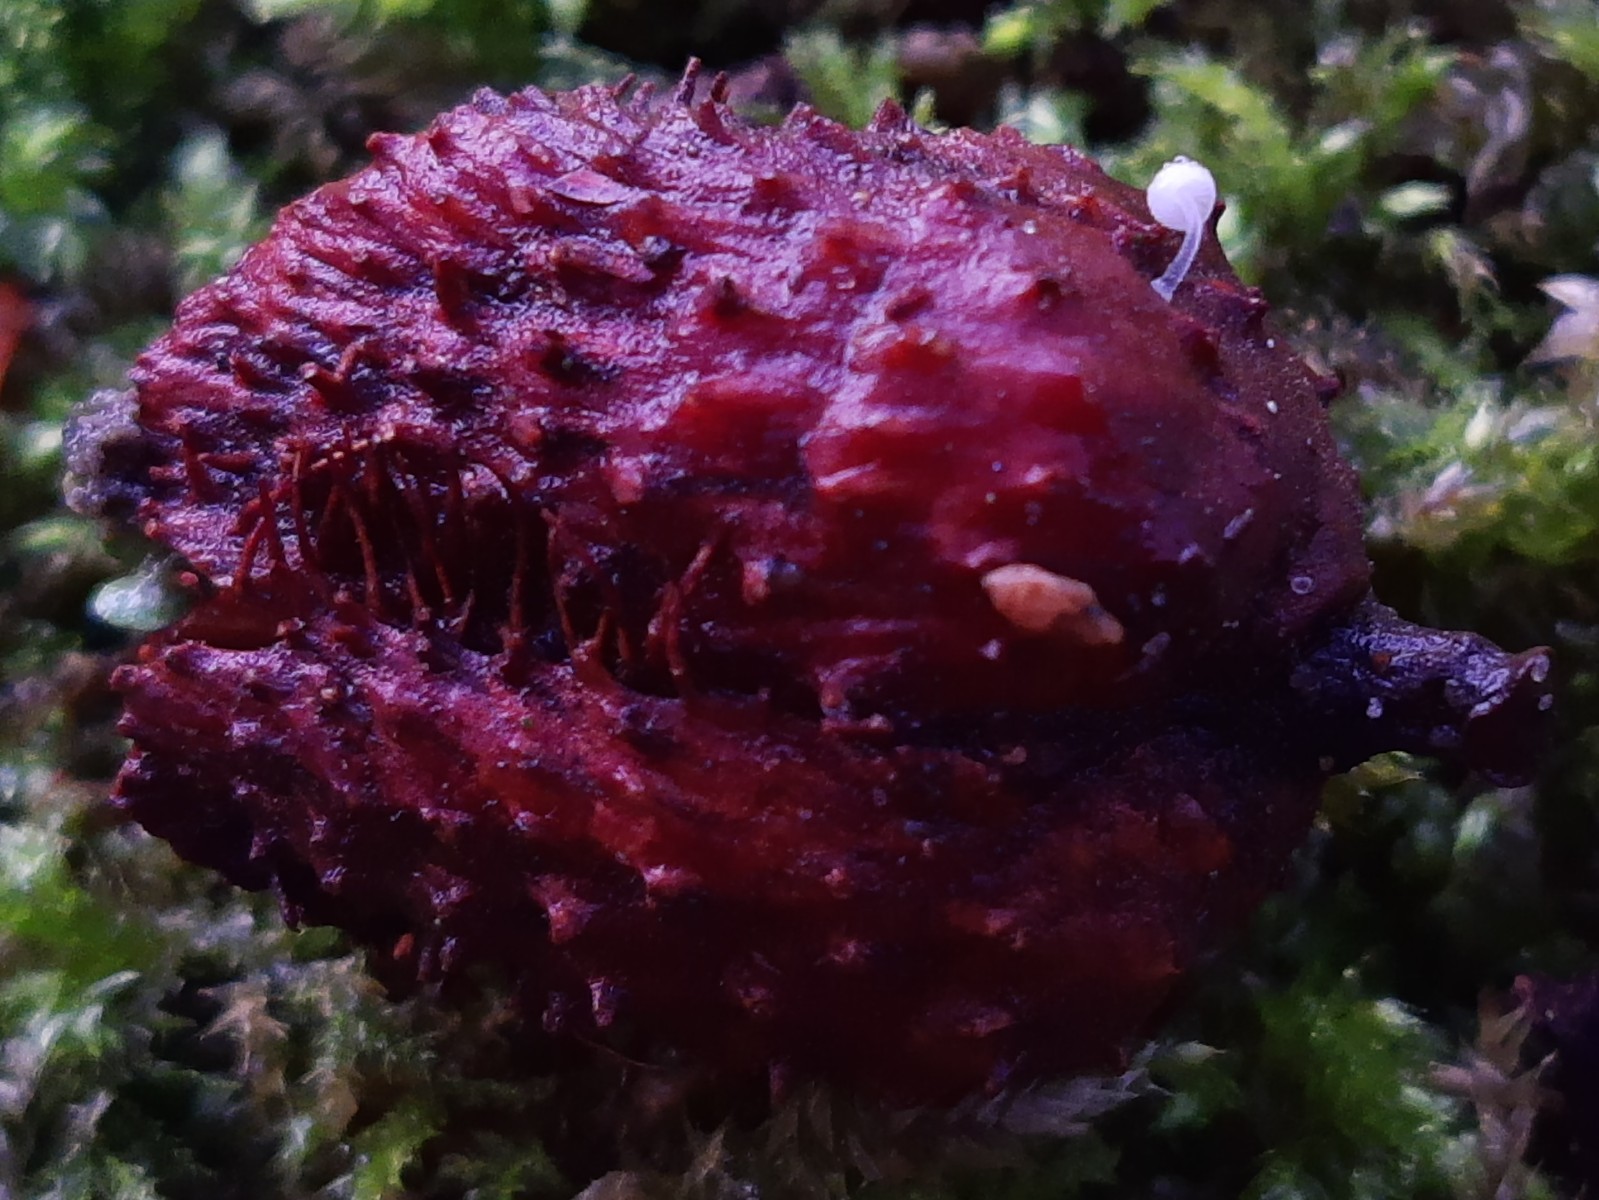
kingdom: Fungi
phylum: Basidiomycota
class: Agaricomycetes
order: Agaricales
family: Mycenaceae
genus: Mycena
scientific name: Mycena tenerrima
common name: pudret huesvamp
